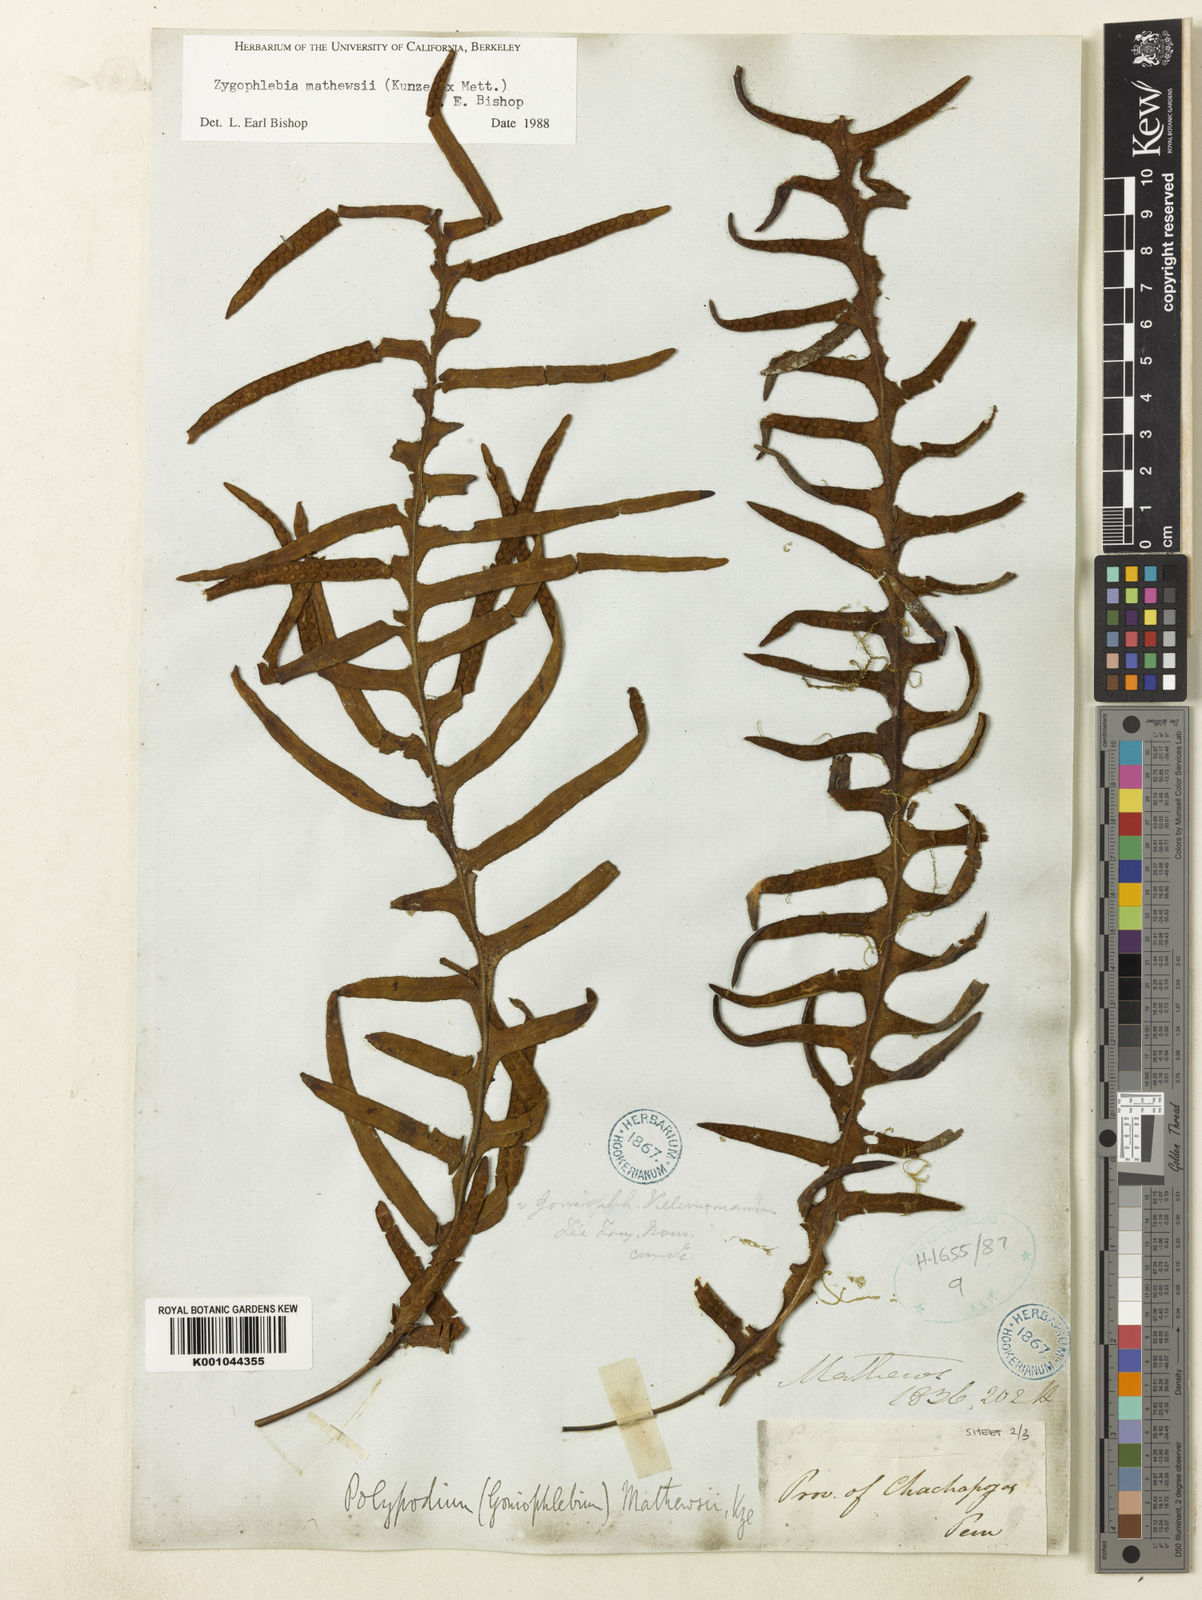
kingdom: Plantae
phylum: Tracheophyta
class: Polypodiopsida
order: Polypodiales
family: Polypodiaceae
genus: Enterosora
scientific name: Enterosora mathewsii
